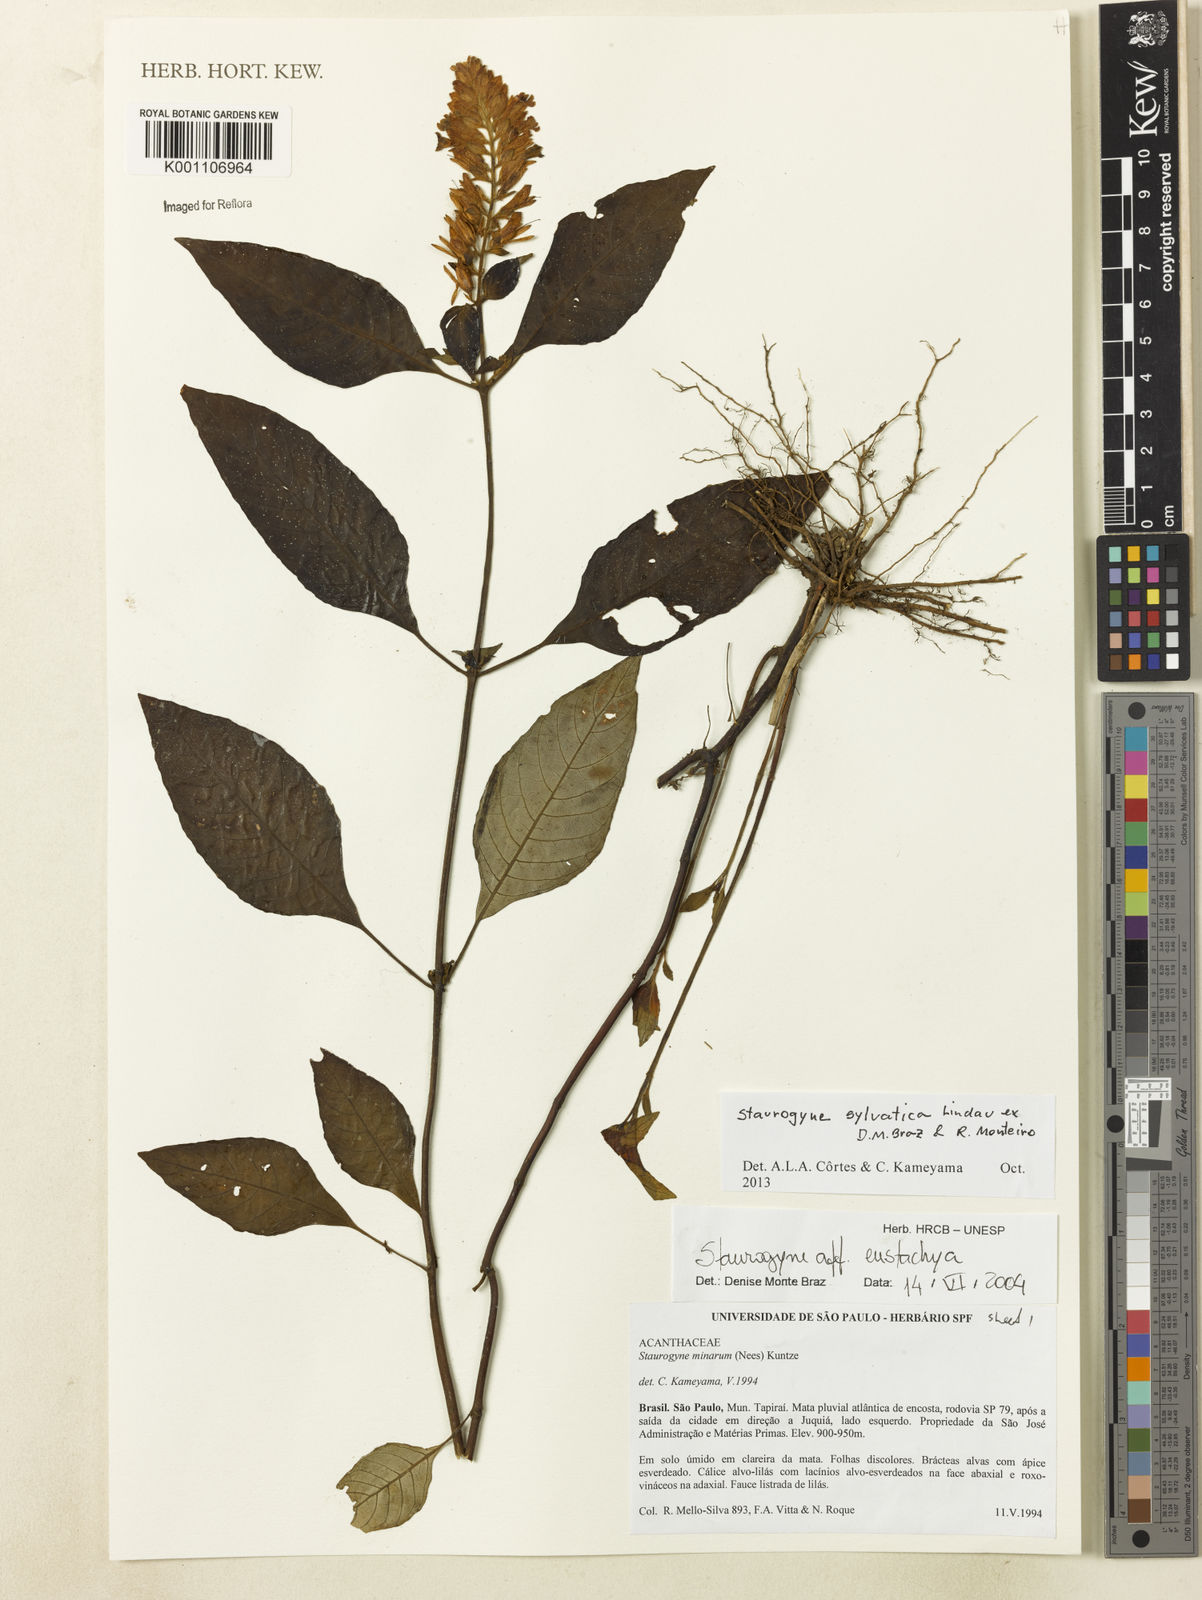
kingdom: Plantae
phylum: Tracheophyta
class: Magnoliopsida
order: Lamiales
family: Acanthaceae
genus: Staurogyne
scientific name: Staurogyne sylvatica
